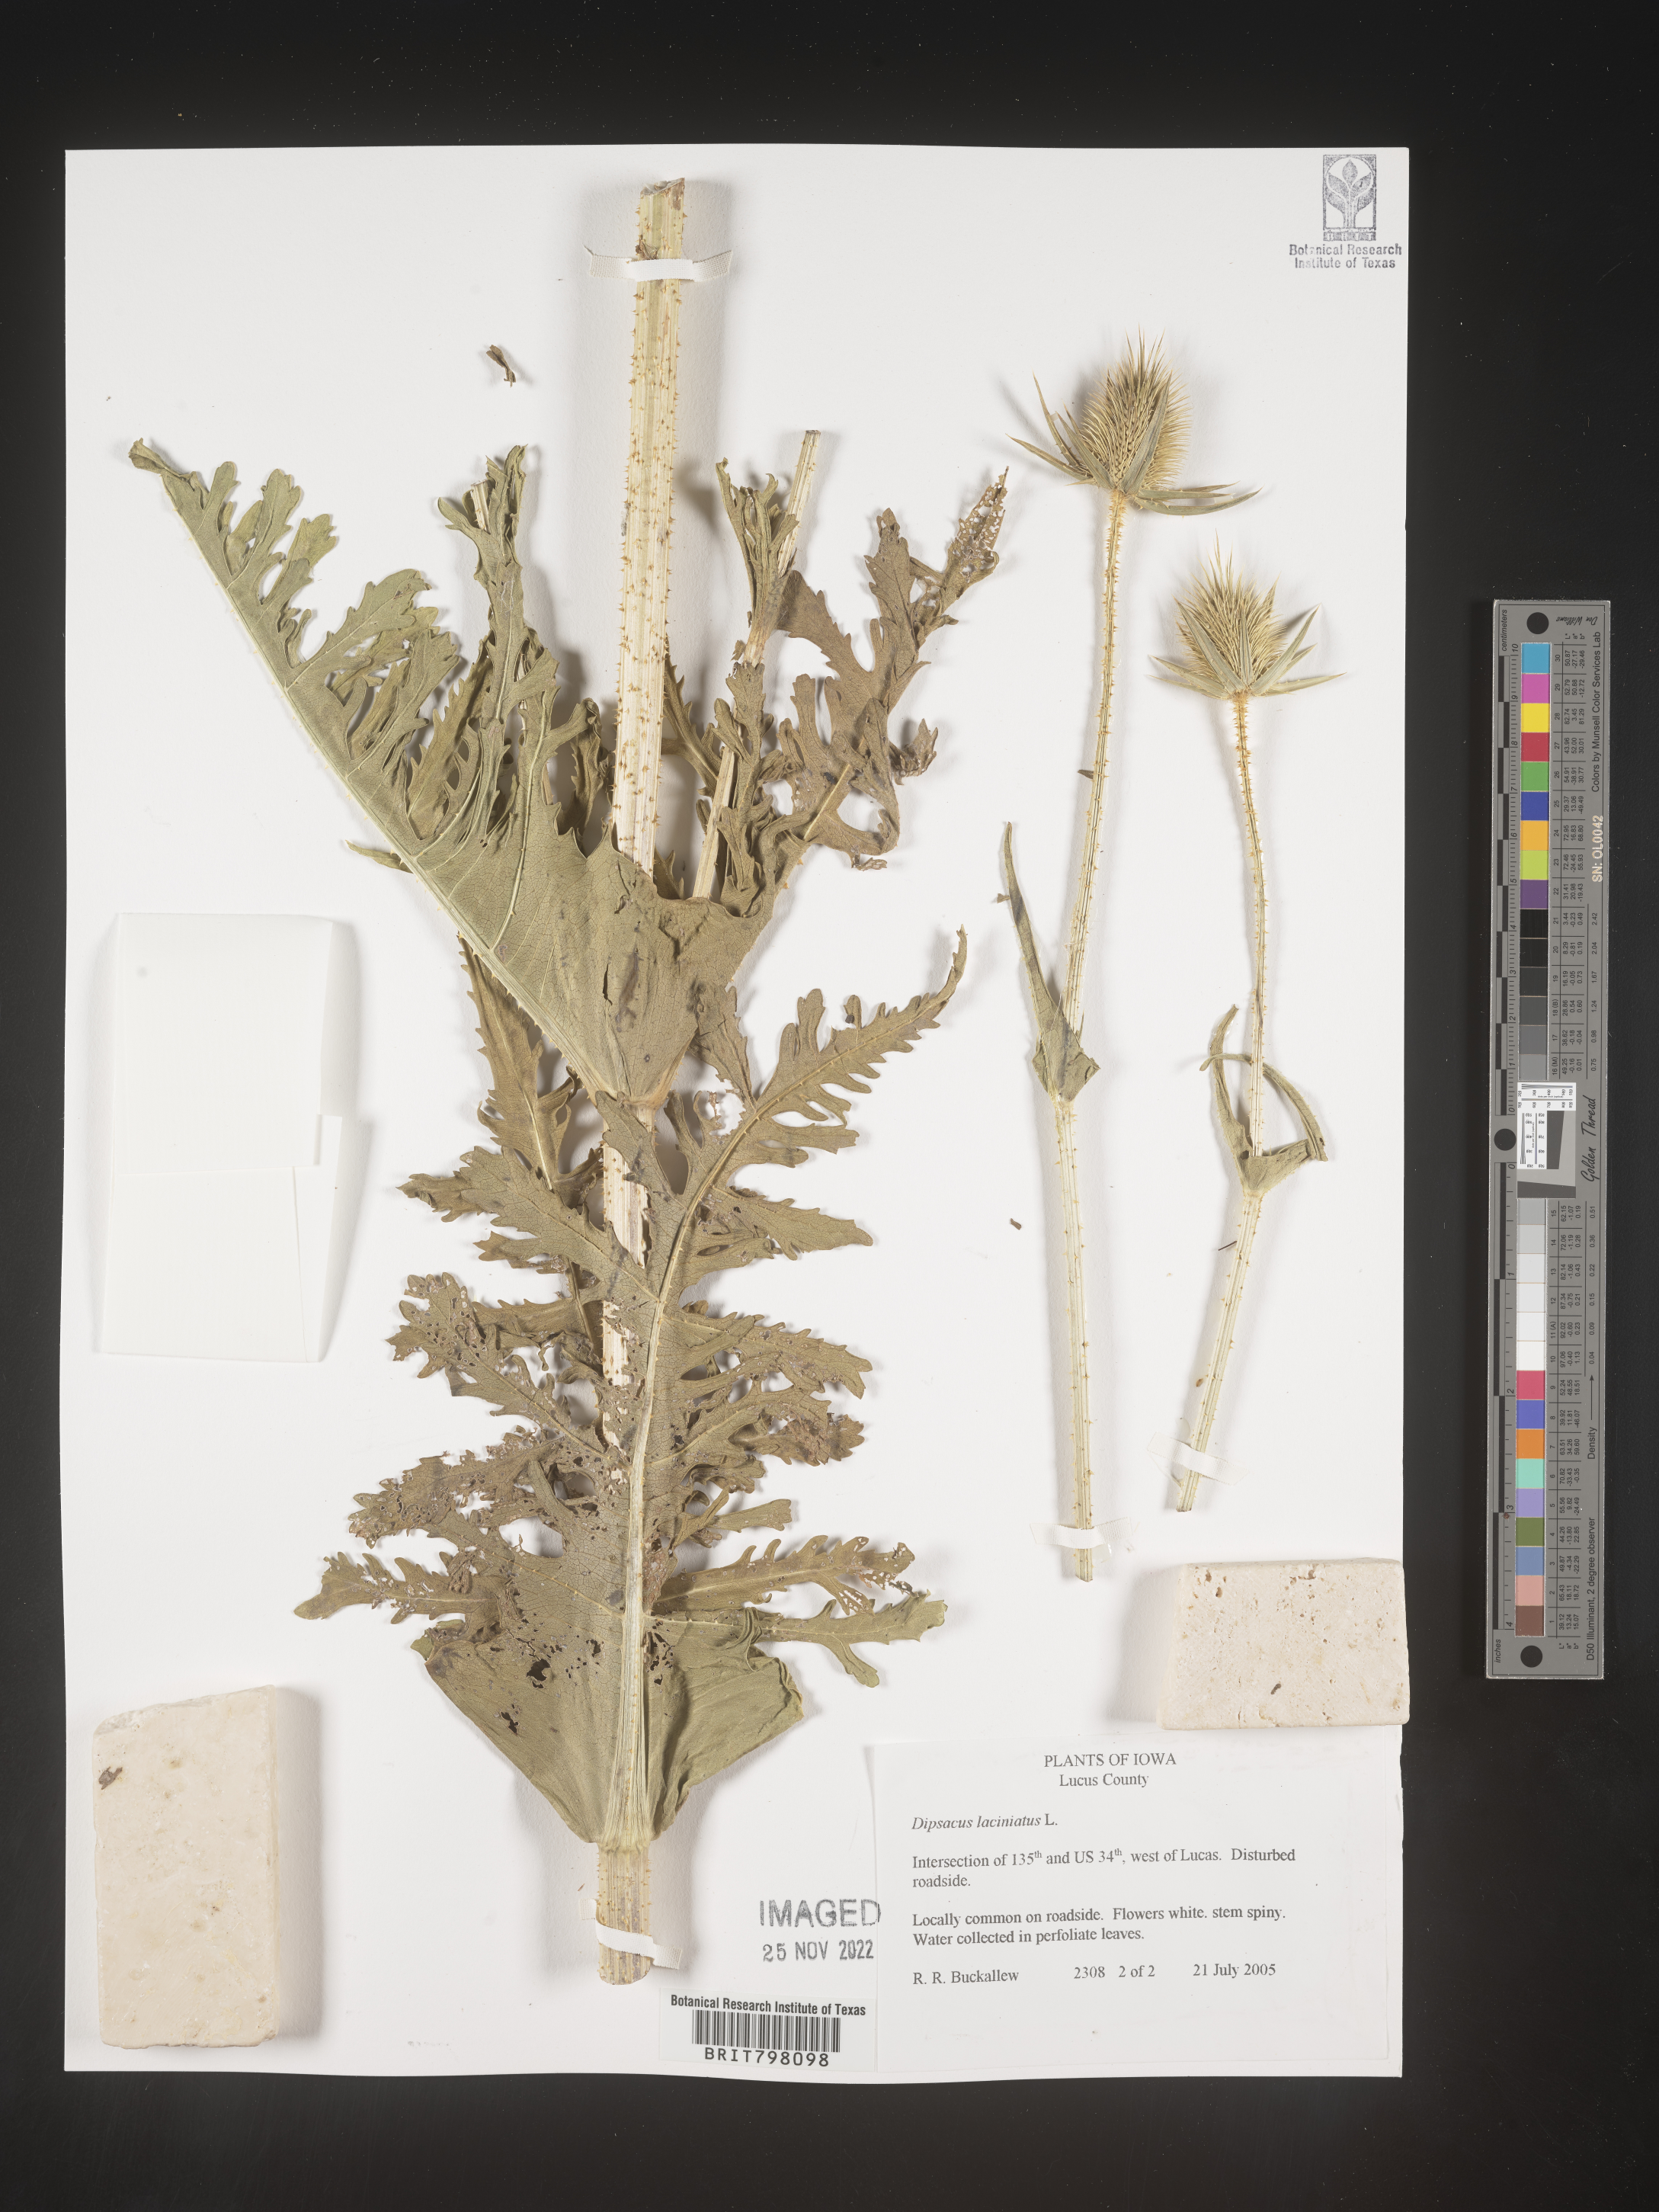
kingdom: Plantae
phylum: Tracheophyta
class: Magnoliopsida
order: Dipsacales
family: Caprifoliaceae
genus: Dipsacus
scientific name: Dipsacus
